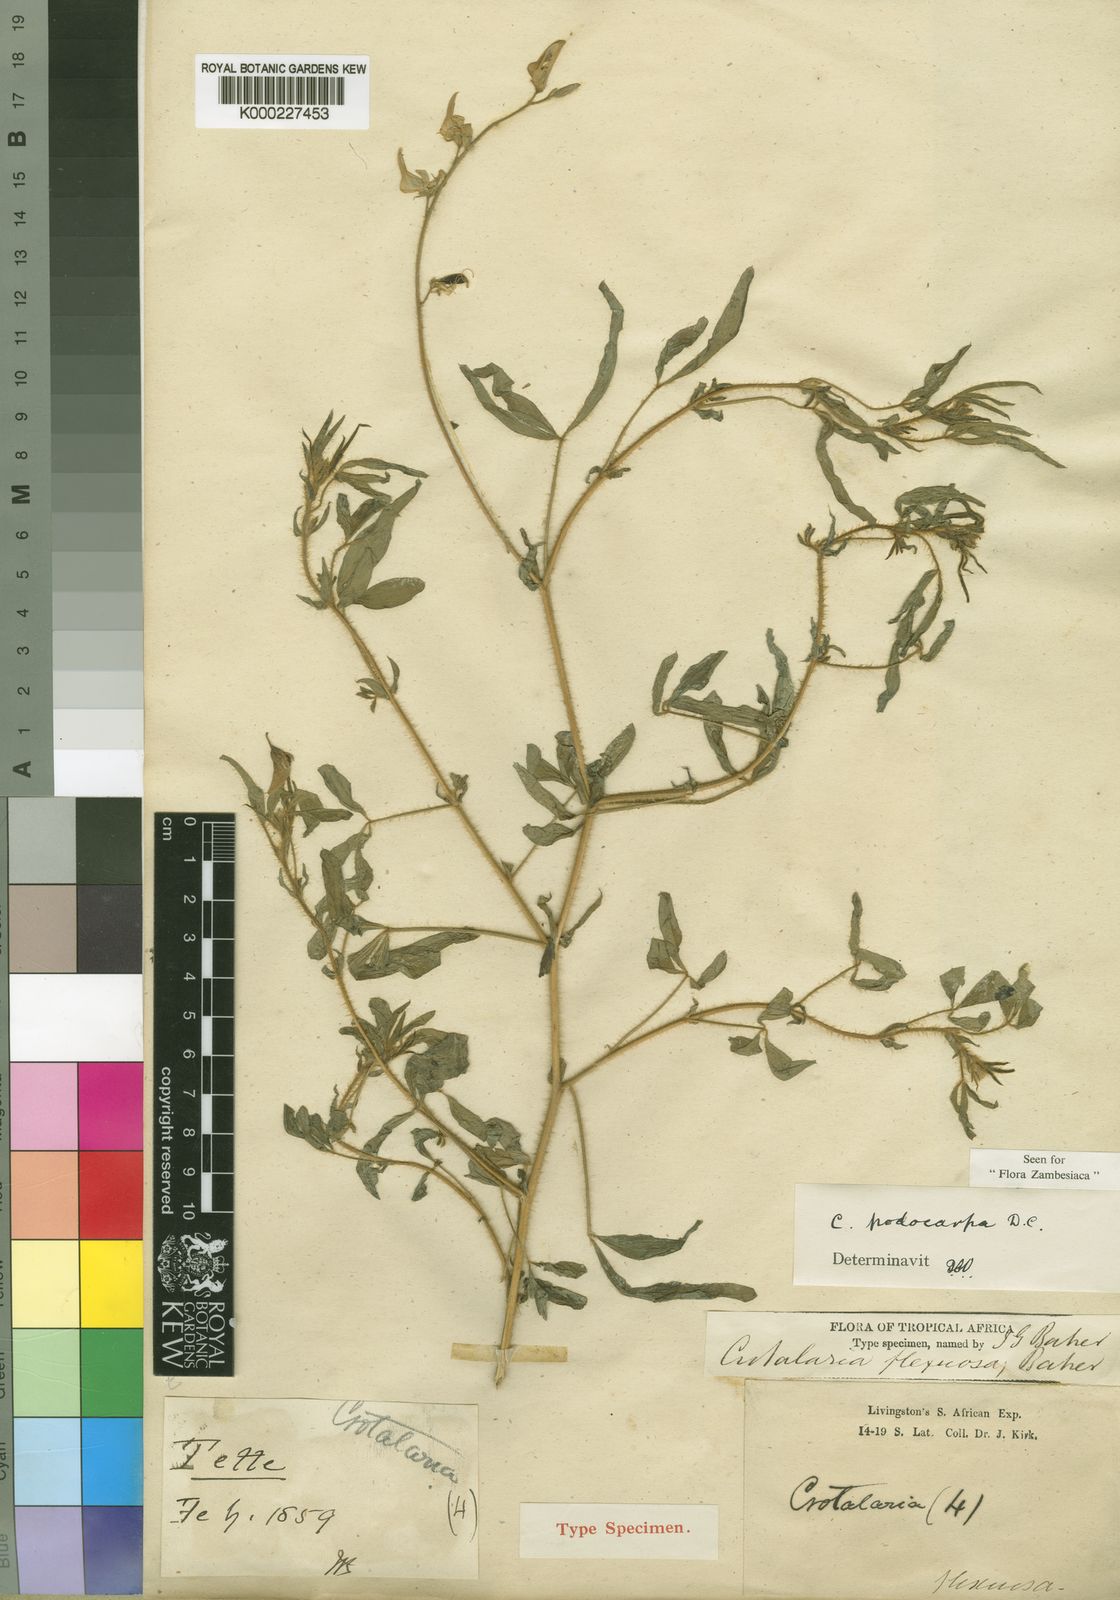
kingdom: Plantae
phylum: Tracheophyta
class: Magnoliopsida
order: Fabales
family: Fabaceae
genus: Crotalaria
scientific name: Crotalaria podocarpa
